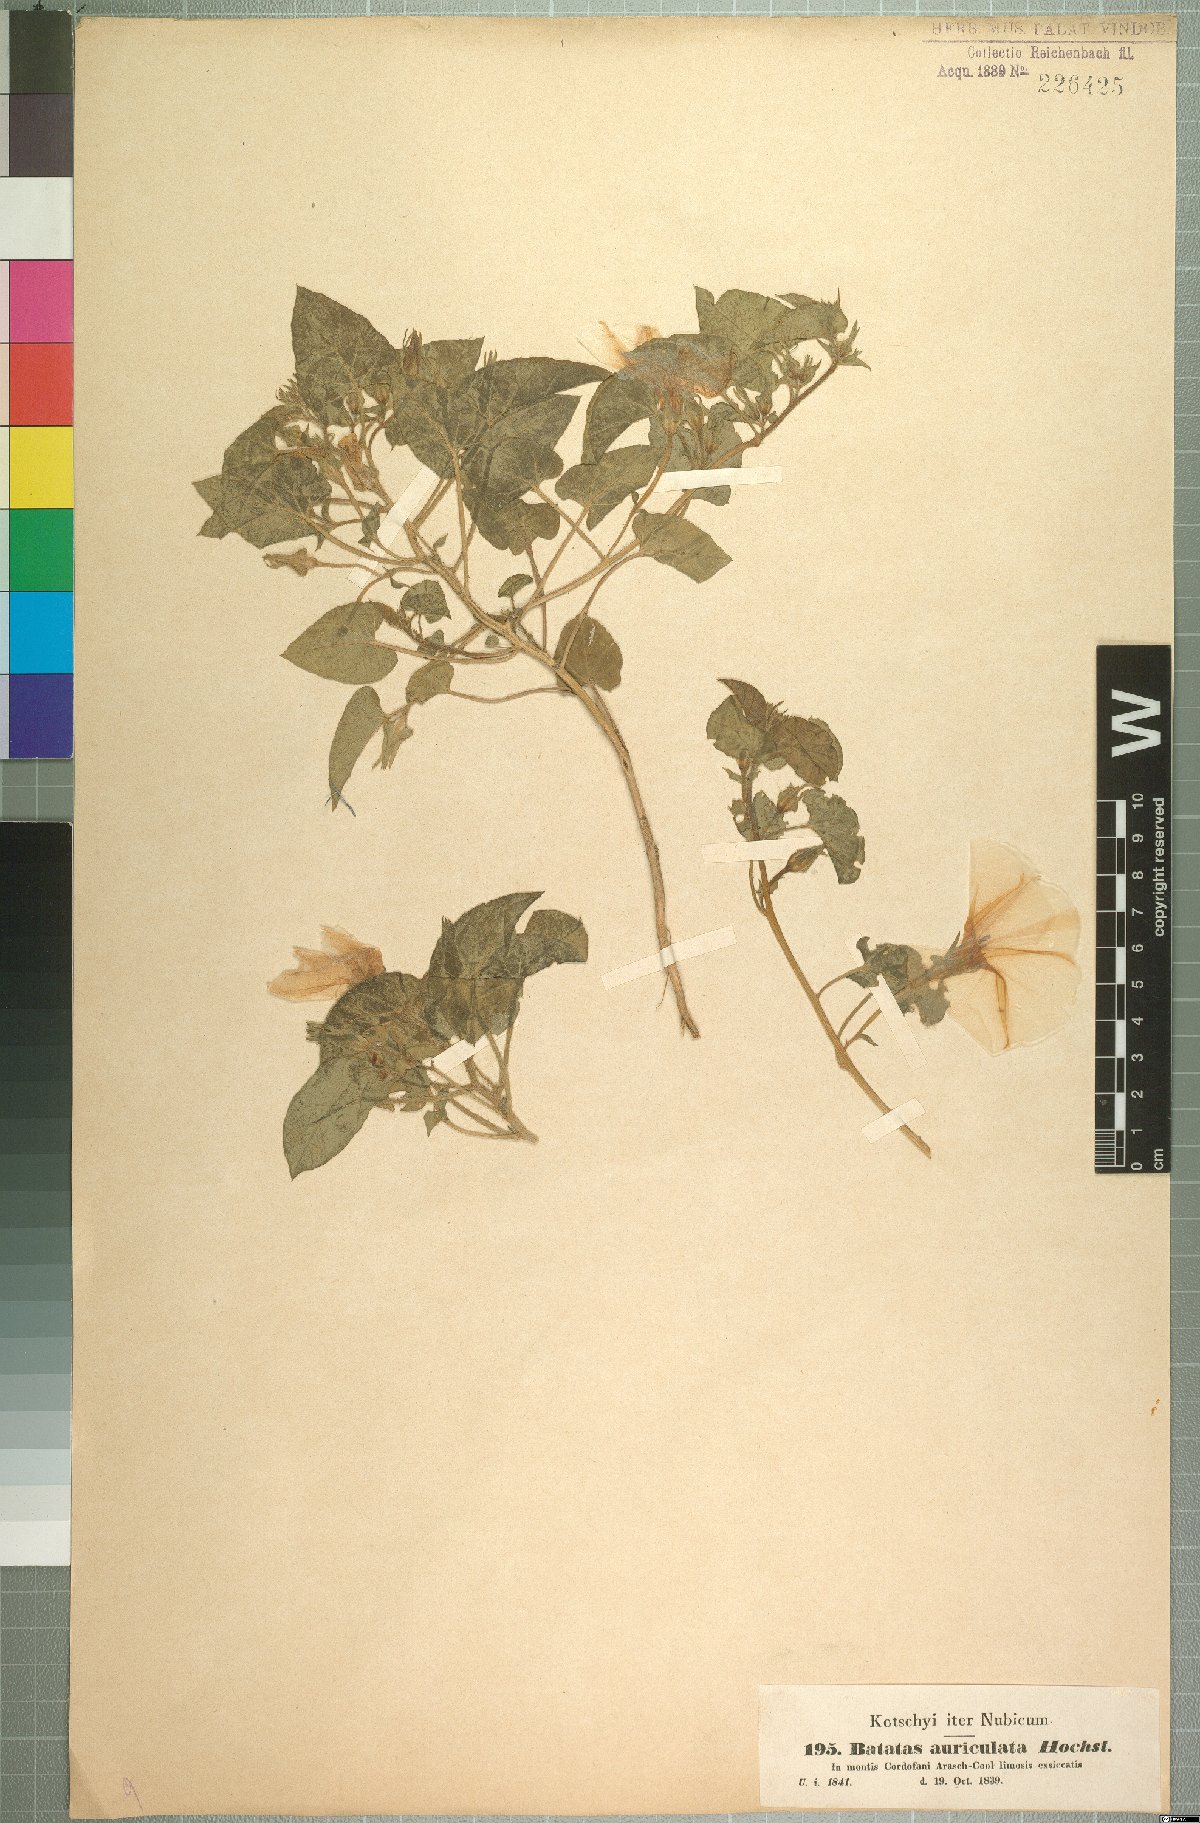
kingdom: Plantae
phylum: Tracheophyta
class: Magnoliopsida
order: Solanales
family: Convolvulaceae
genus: Ipomoea
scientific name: Ipomoea cordofana
